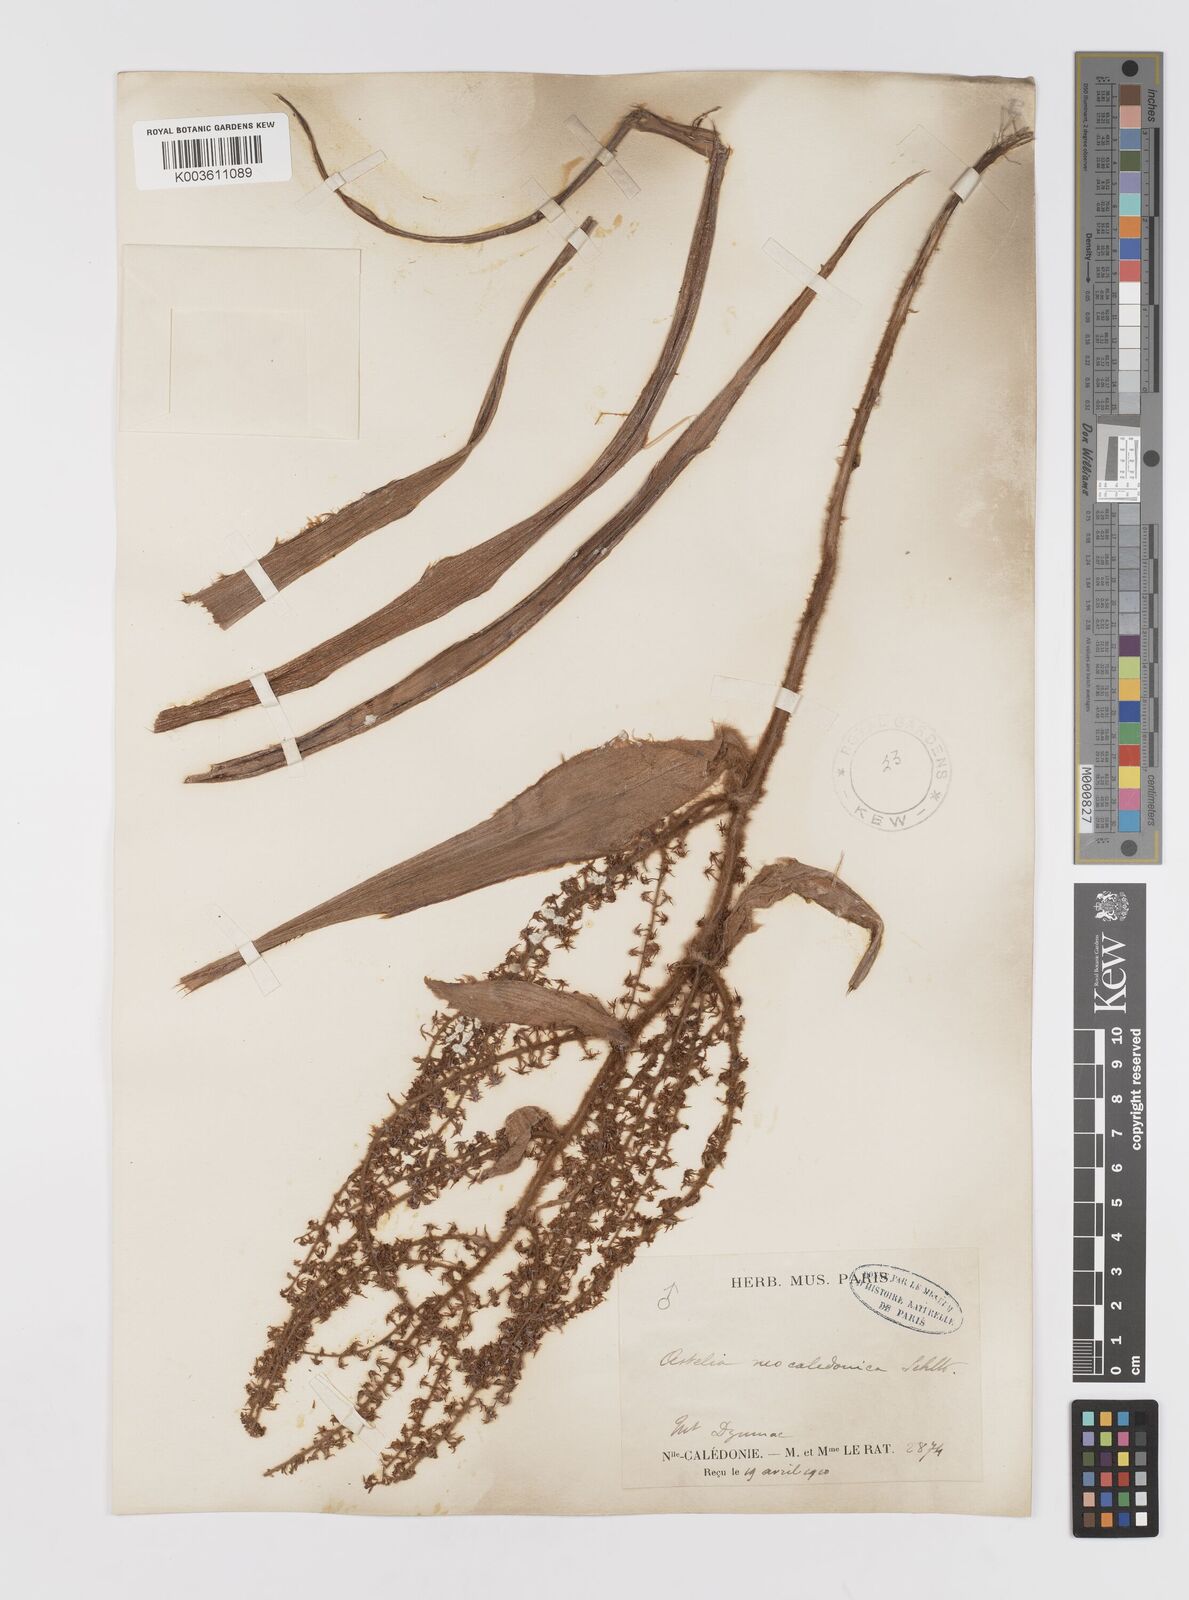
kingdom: Plantae
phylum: Tracheophyta
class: Liliopsida
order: Asparagales
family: Asteliaceae
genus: Astelia
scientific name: Astelia neocaledonica
